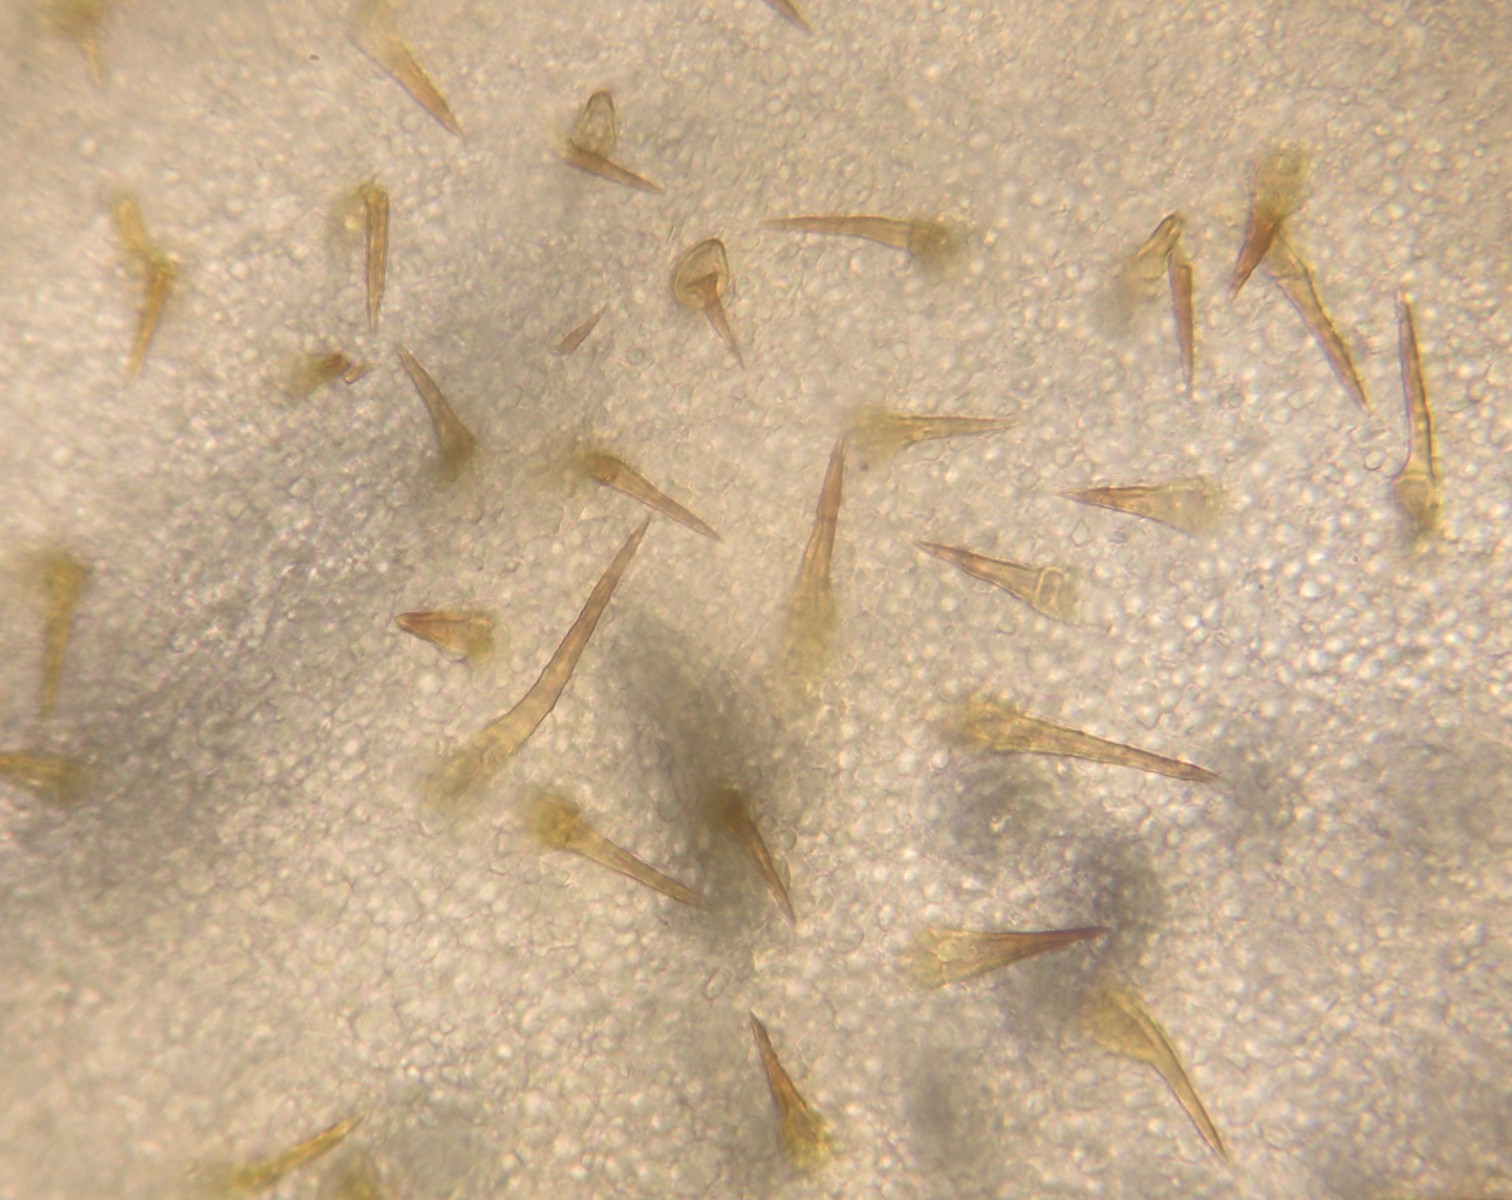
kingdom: Fungi
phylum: Basidiomycota
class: Agaricomycetes
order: Agaricales
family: Marasmiaceae
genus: Marasmius
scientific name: Marasmius cohaerens
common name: hornstokket bruskhat
